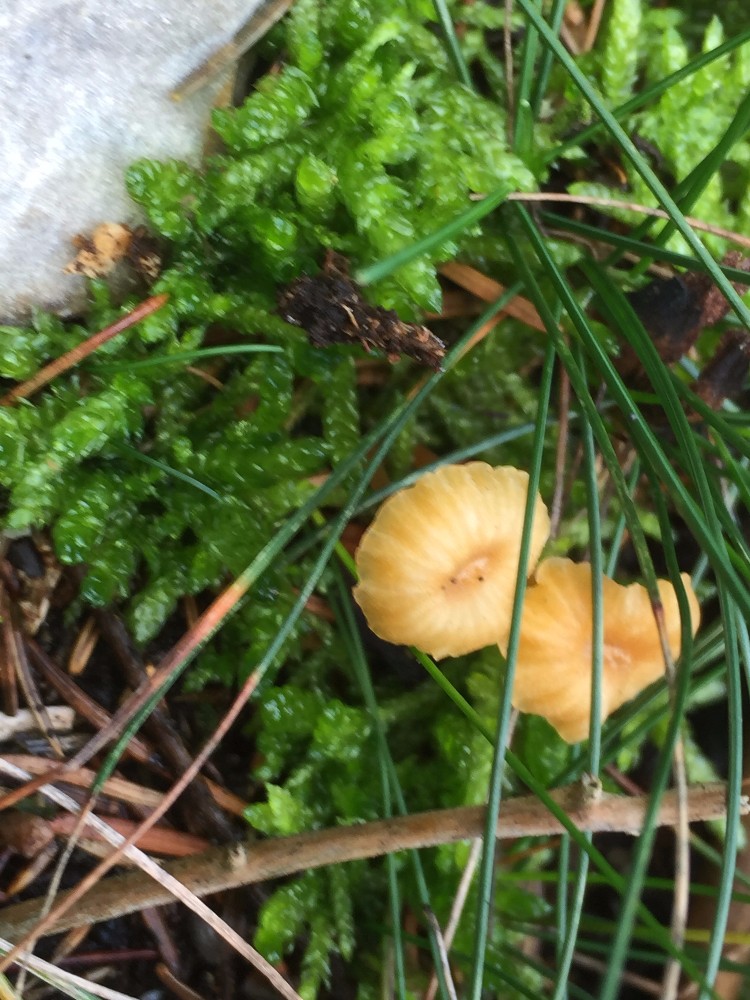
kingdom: Fungi
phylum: Basidiomycota
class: Agaricomycetes
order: Hymenochaetales
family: Rickenellaceae
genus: Rickenella
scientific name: Rickenella fibula
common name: orange mosnavlehat
